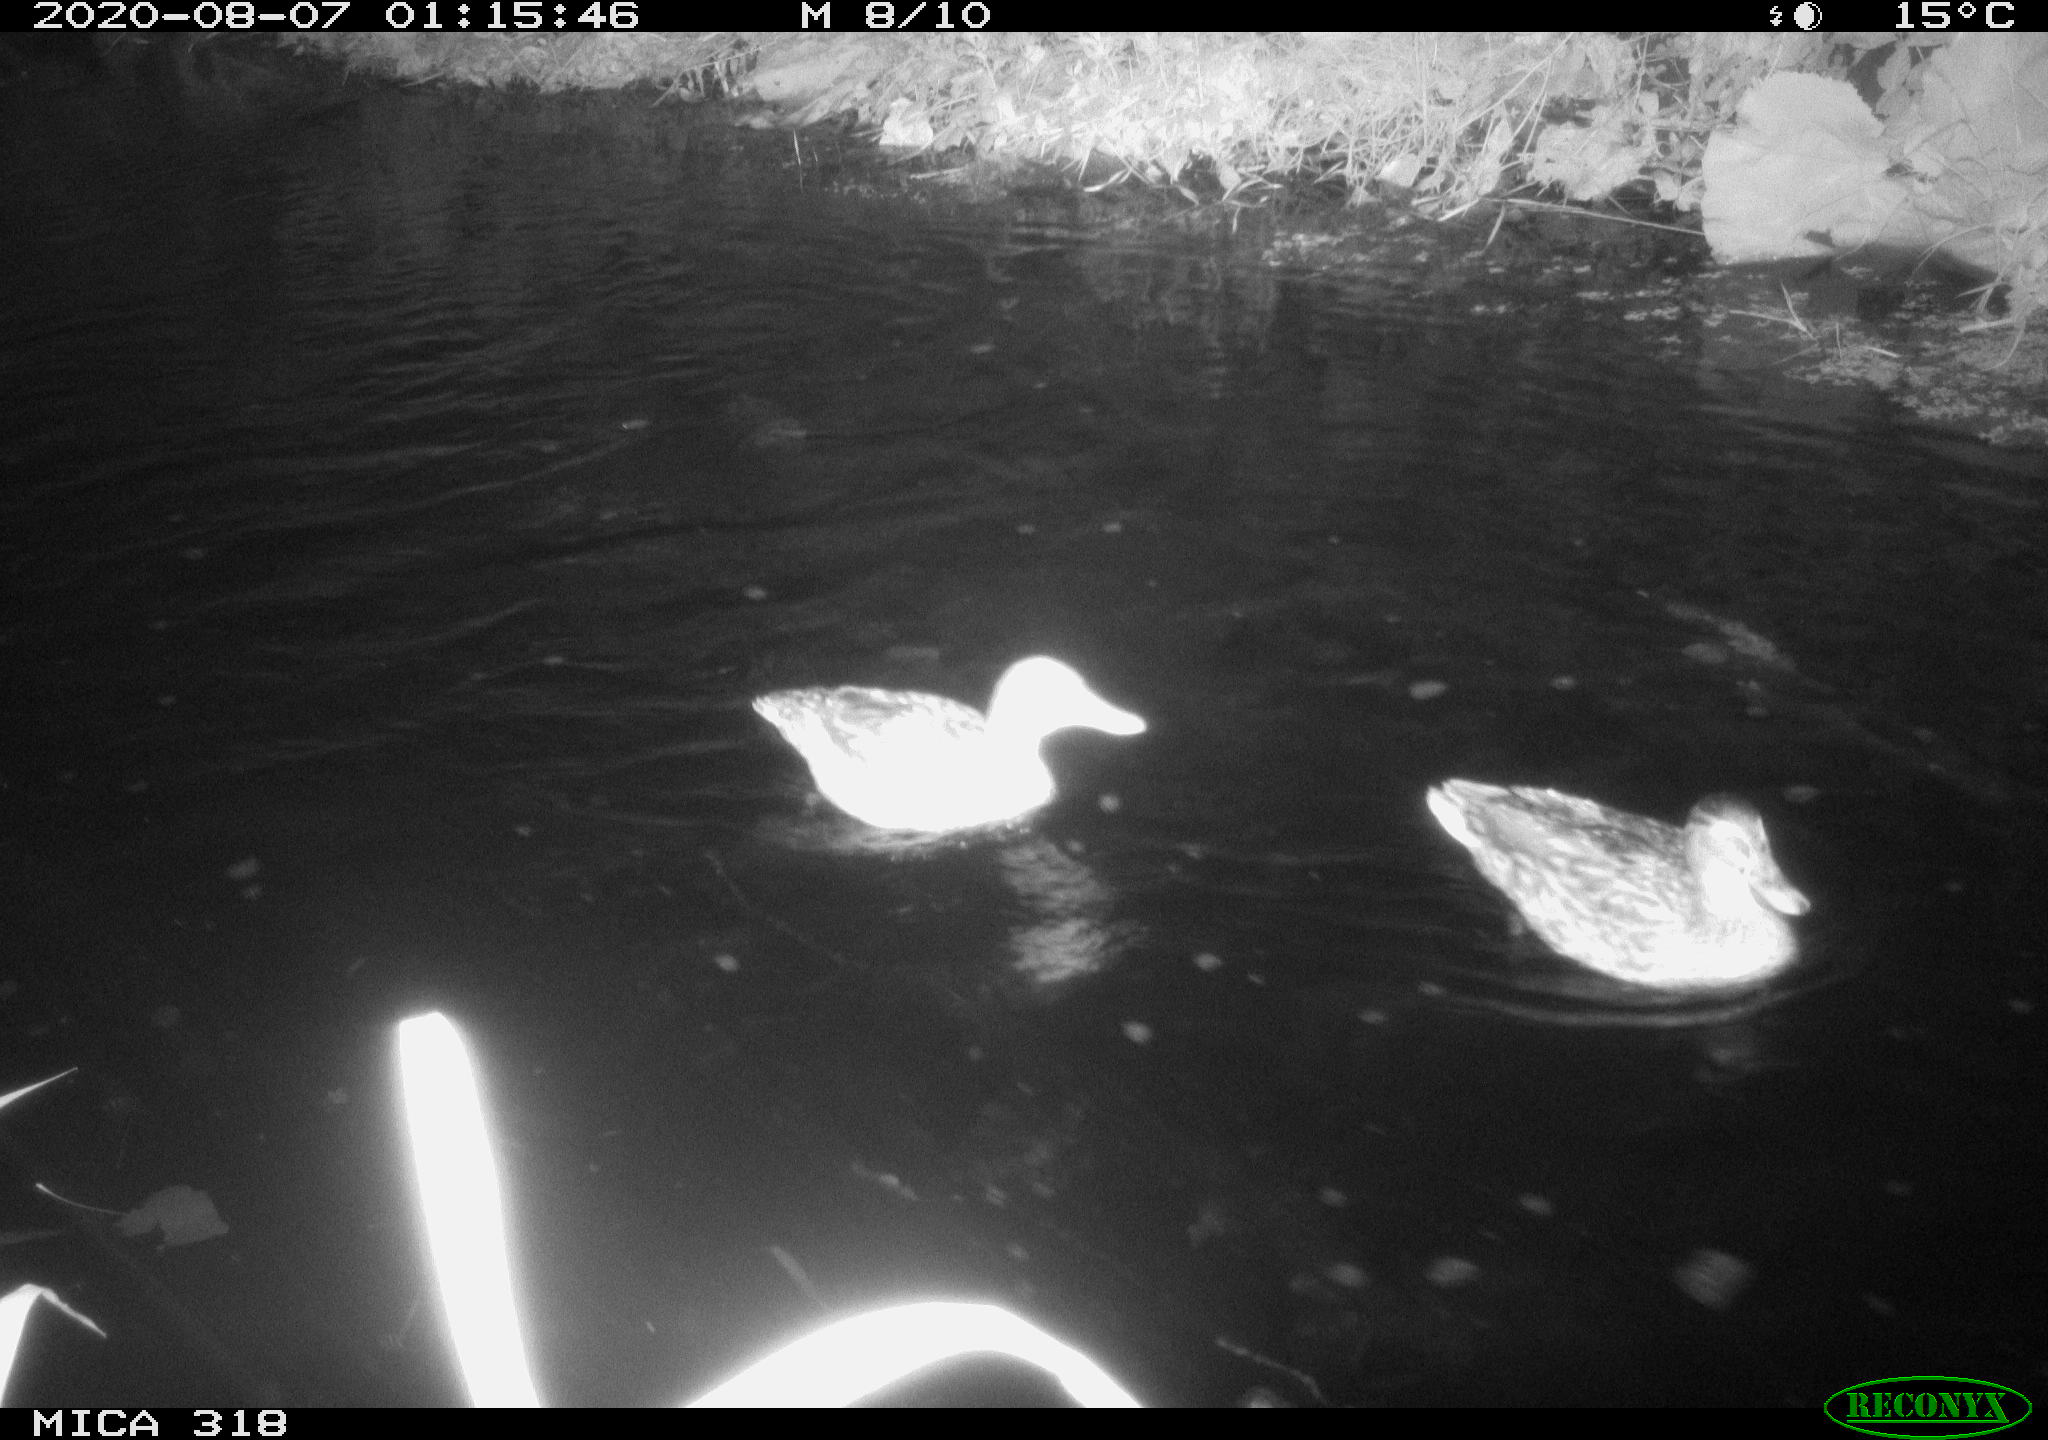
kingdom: Animalia
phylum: Chordata
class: Aves
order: Anseriformes
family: Anatidae
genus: Anas
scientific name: Anas platyrhynchos
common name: Mallard
